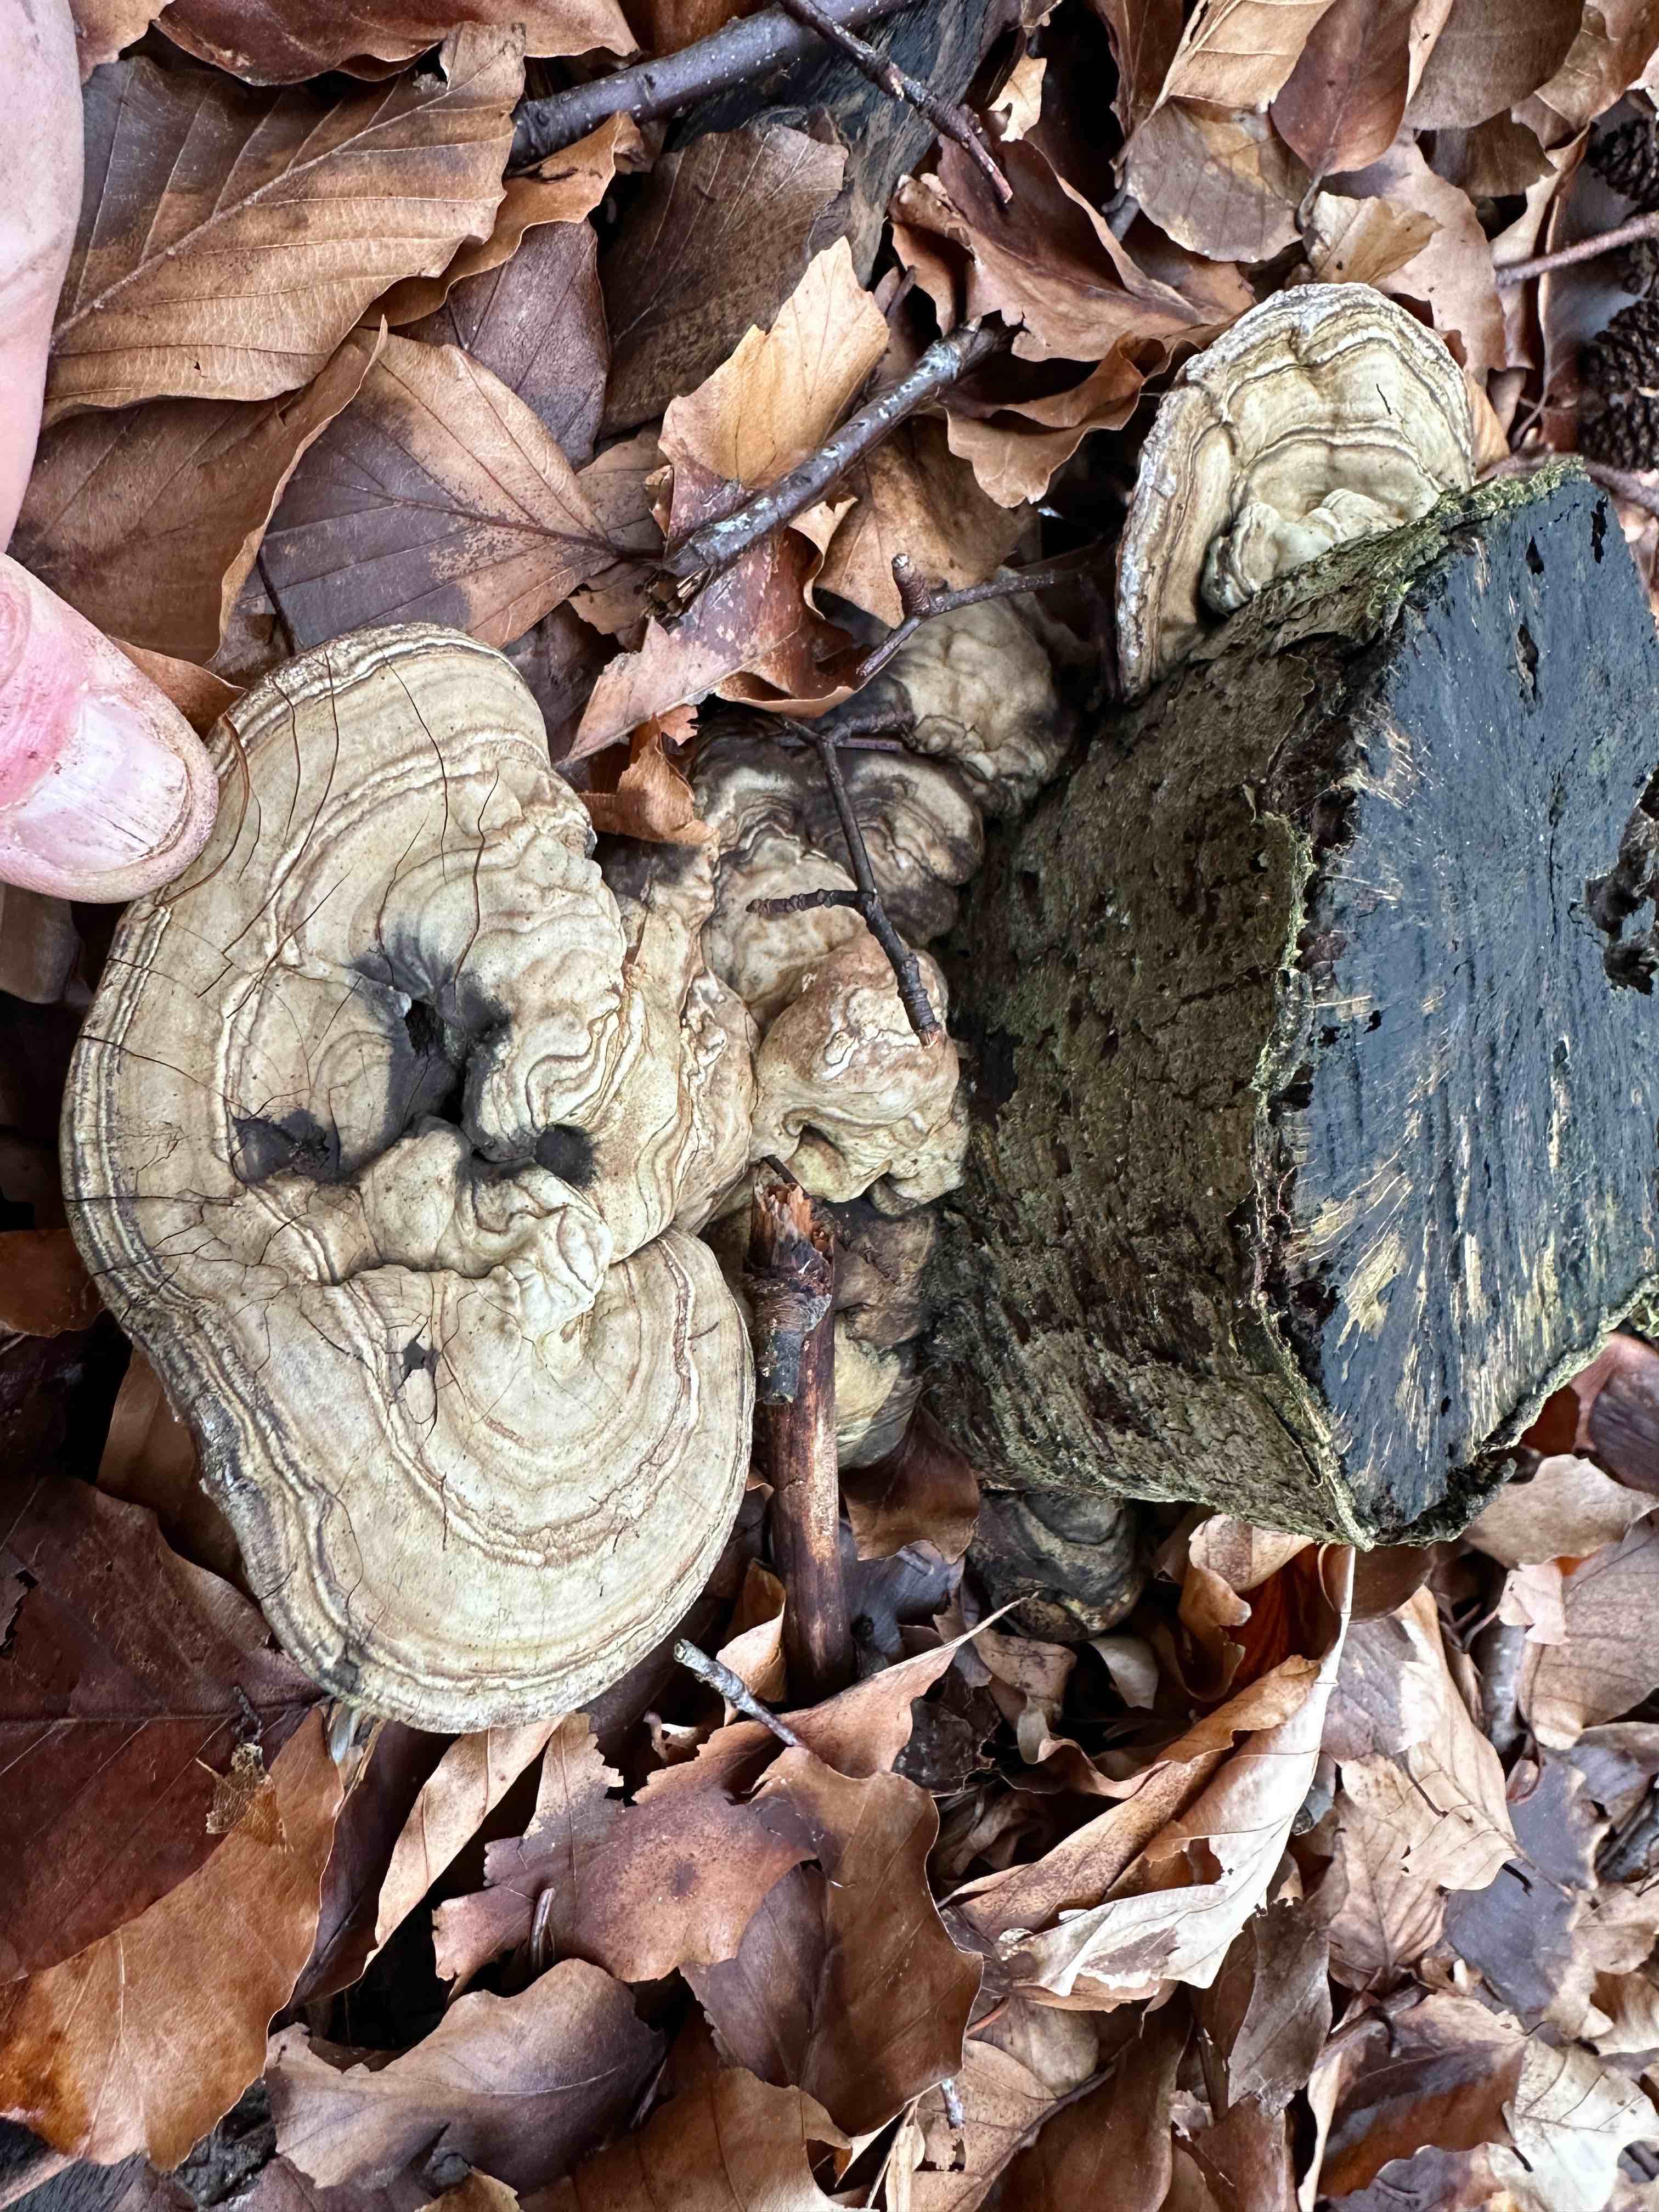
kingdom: Fungi
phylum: Basidiomycota
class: Agaricomycetes
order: Polyporales
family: Polyporaceae
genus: Ganoderma
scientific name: Ganoderma applanatum
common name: flad lakporesvamp
